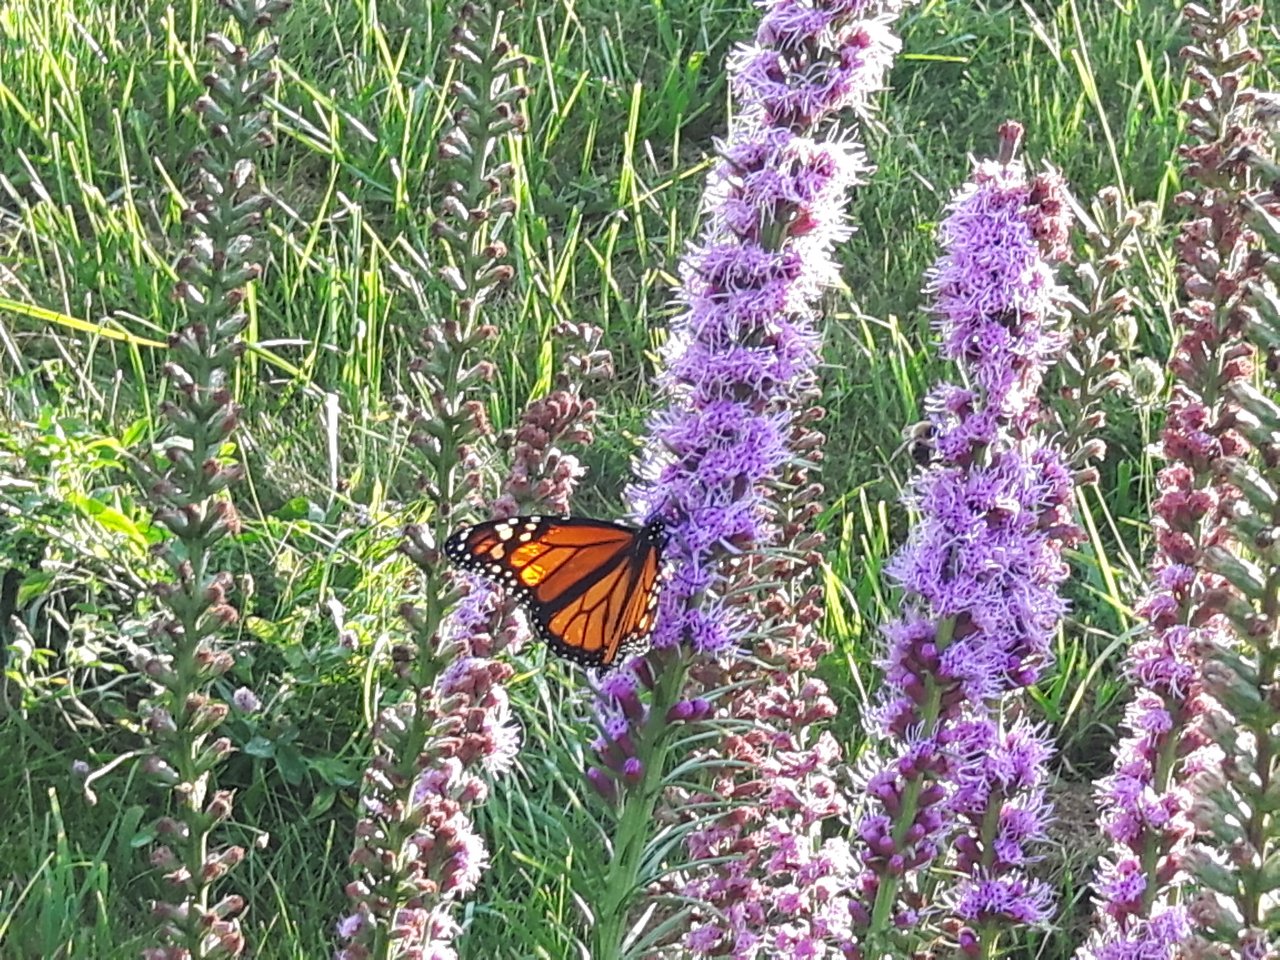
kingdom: Animalia
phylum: Arthropoda
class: Insecta
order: Lepidoptera
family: Nymphalidae
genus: Danaus
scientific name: Danaus plexippus
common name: Monarch
